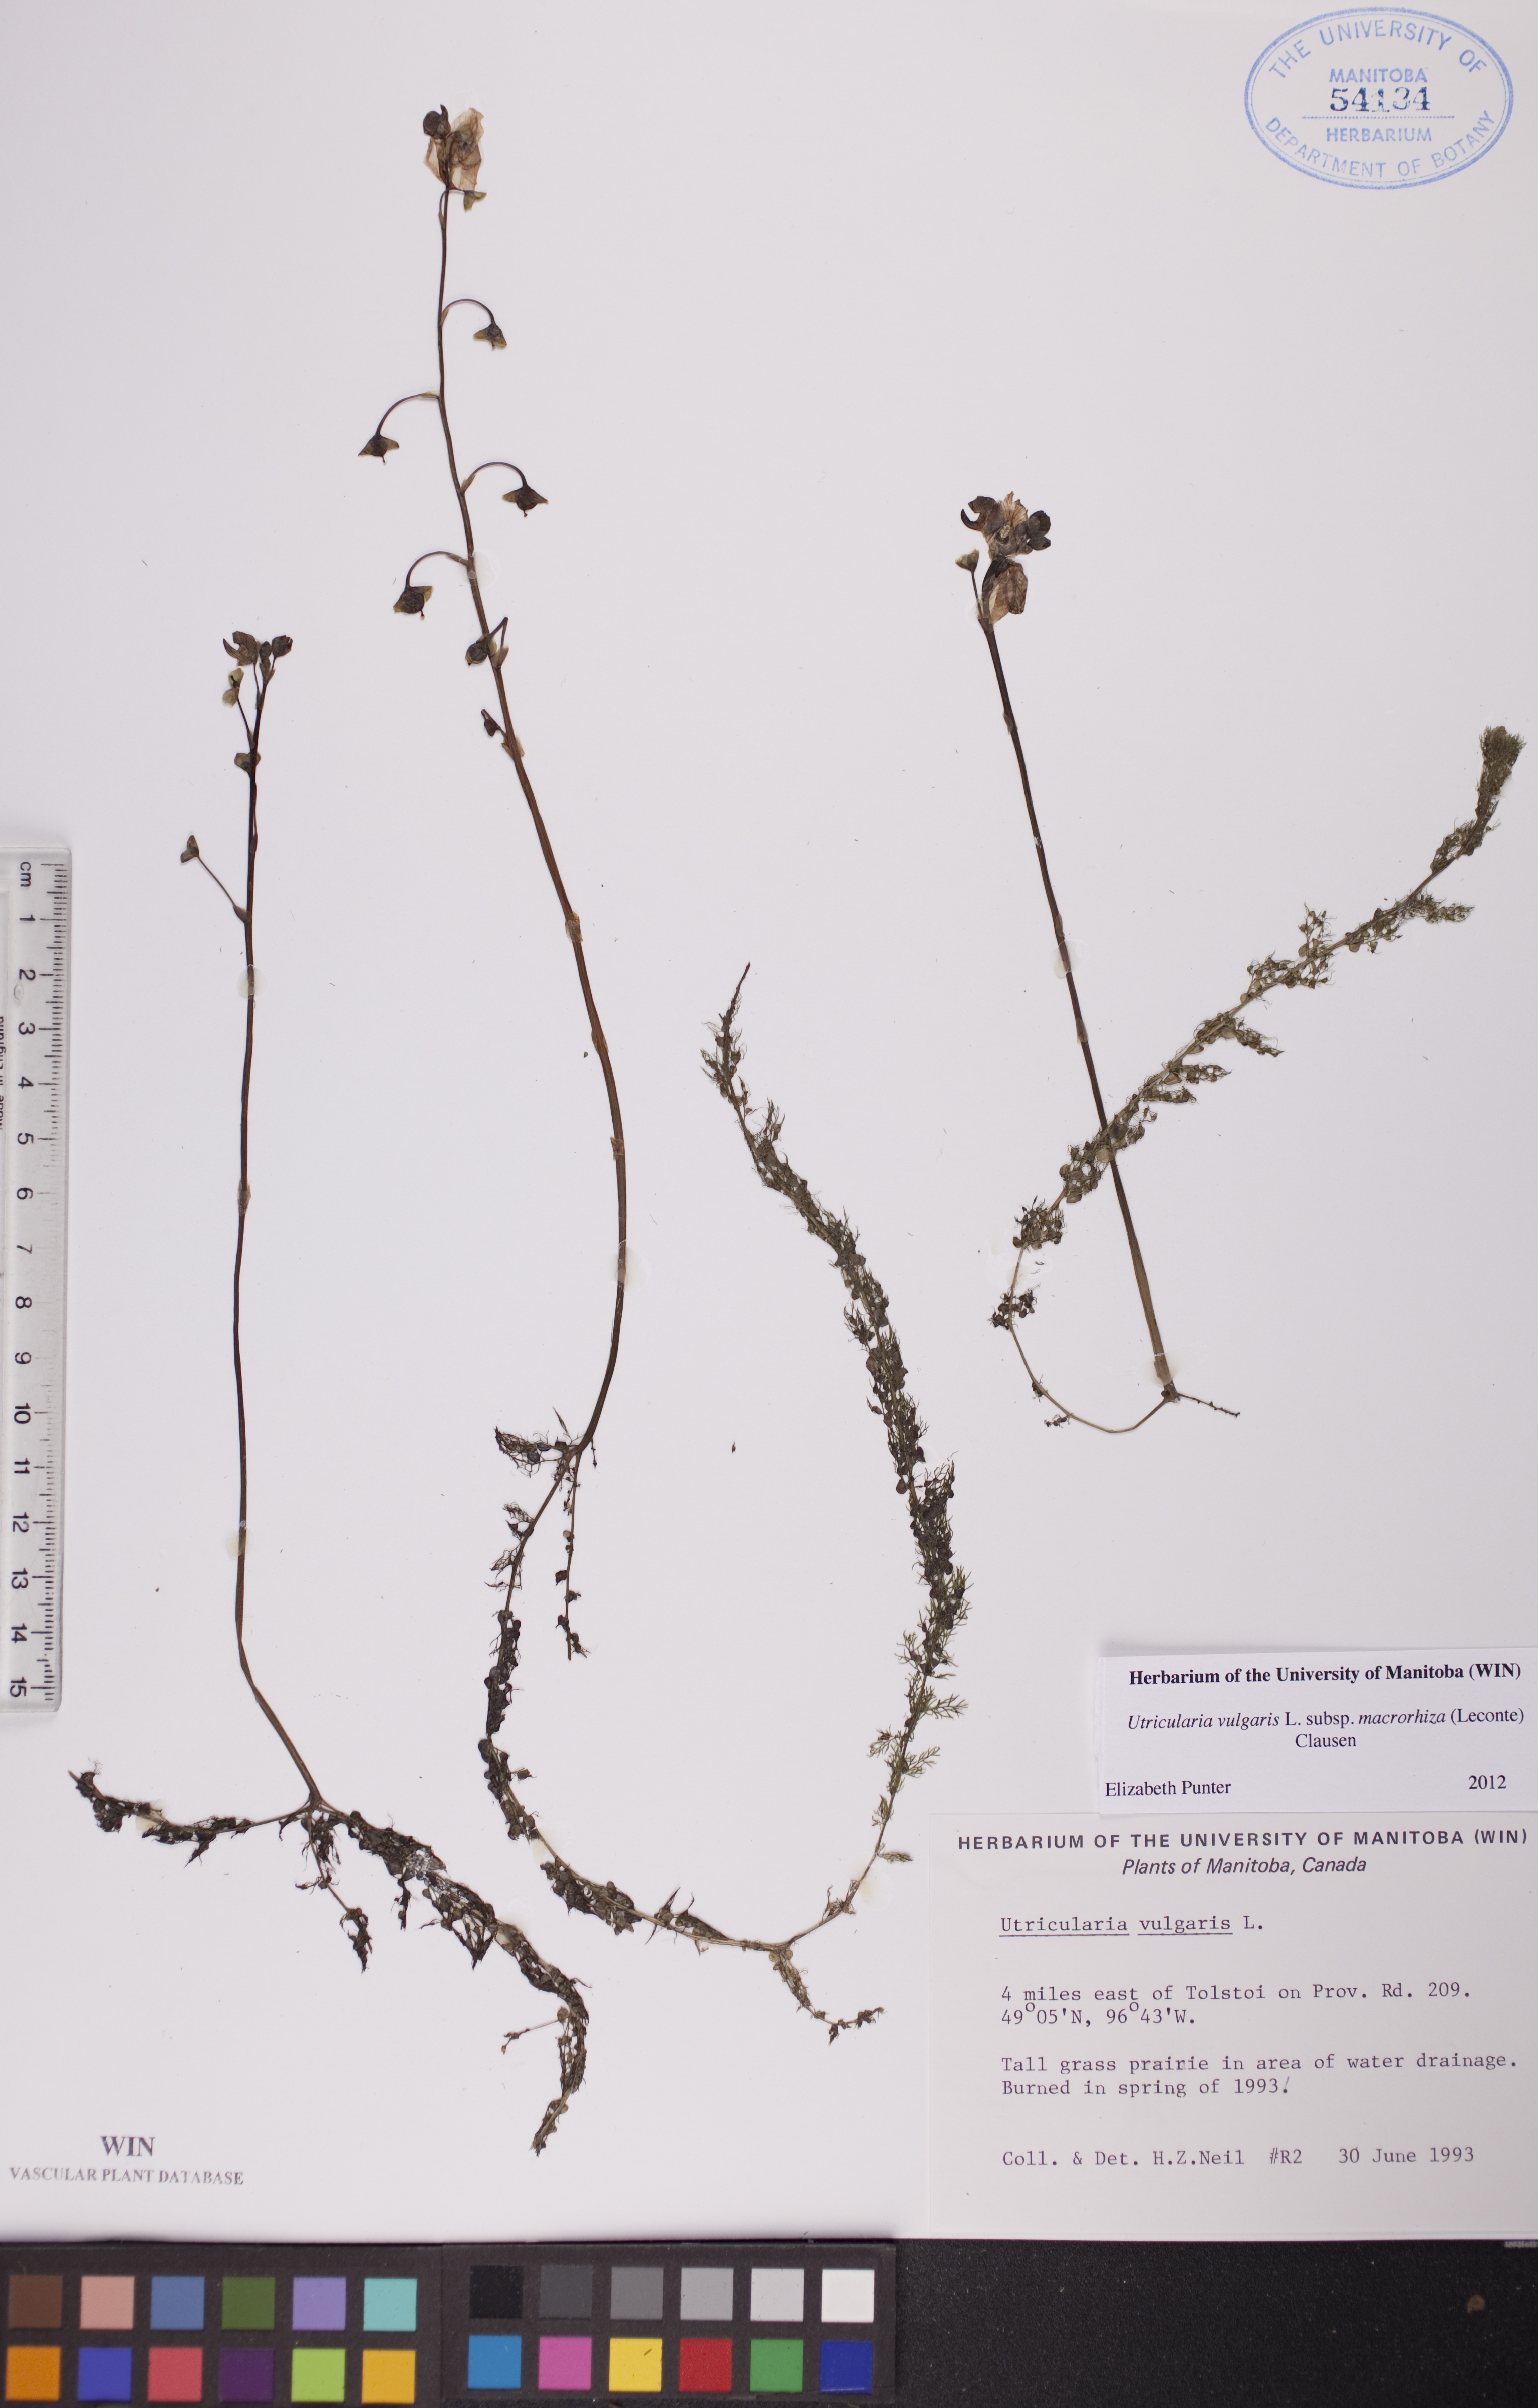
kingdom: Plantae
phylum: Tracheophyta
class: Magnoliopsida
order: Lamiales
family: Lentibulariaceae
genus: Utricularia
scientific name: Utricularia macrorhiza
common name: Common bladderwort
